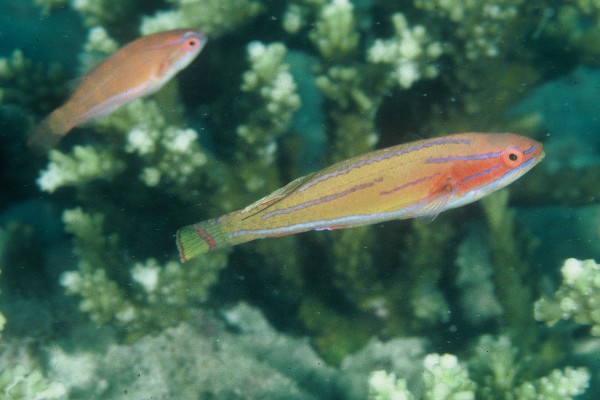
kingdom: Animalia
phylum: Chordata
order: Perciformes
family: Labridae
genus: Paracheilinus
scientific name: Paracheilinus mccoskeri
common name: Mccosker's flasher
